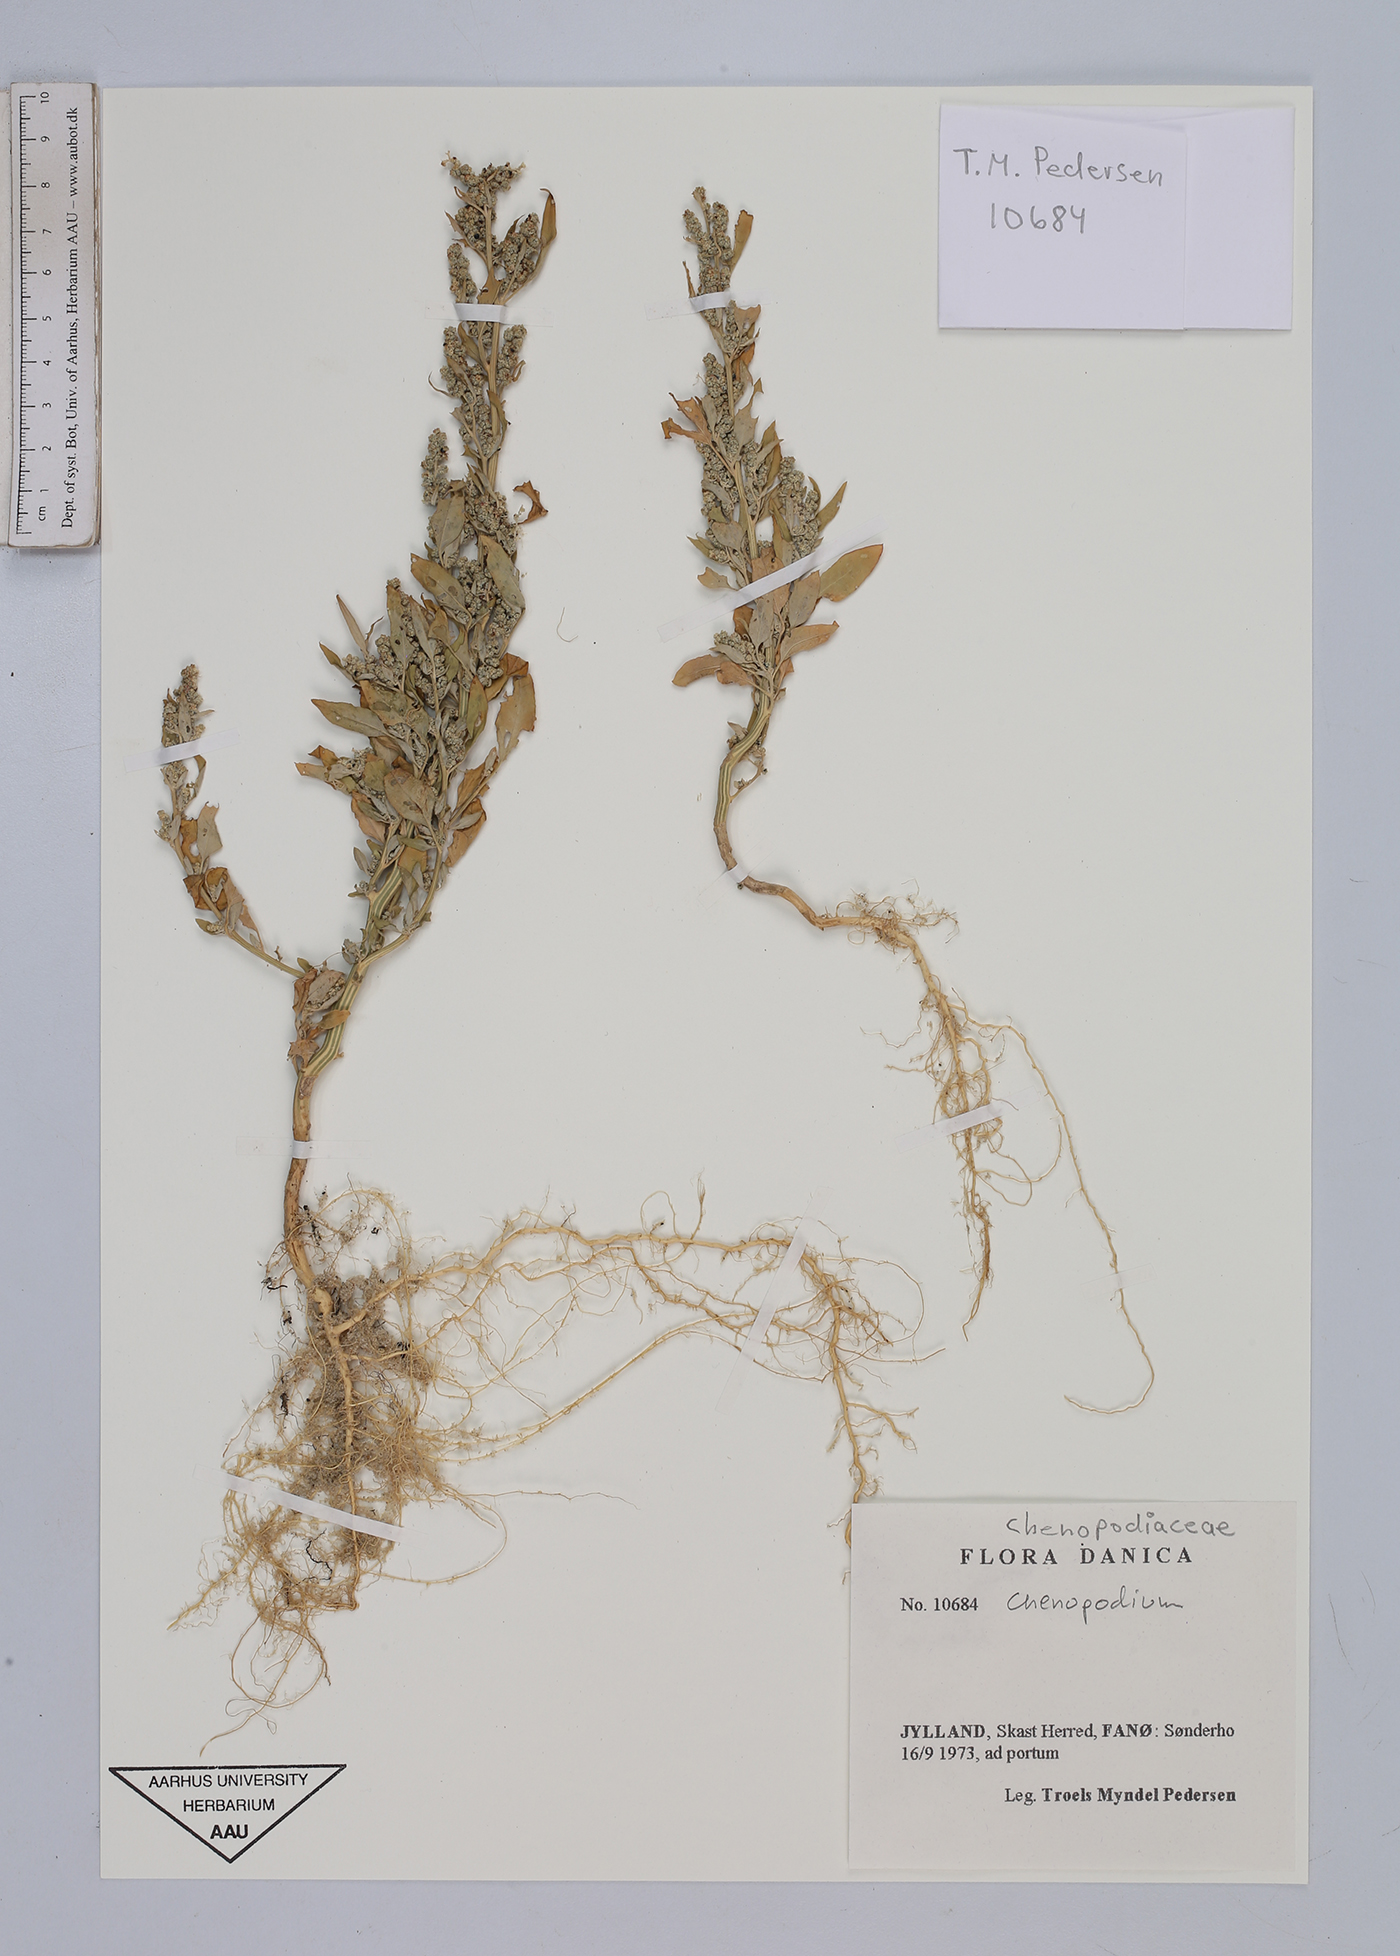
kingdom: Plantae
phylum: Tracheophyta
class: Magnoliopsida
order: Caryophyllales
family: Amaranthaceae
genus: Chenopodium
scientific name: Chenopodium
